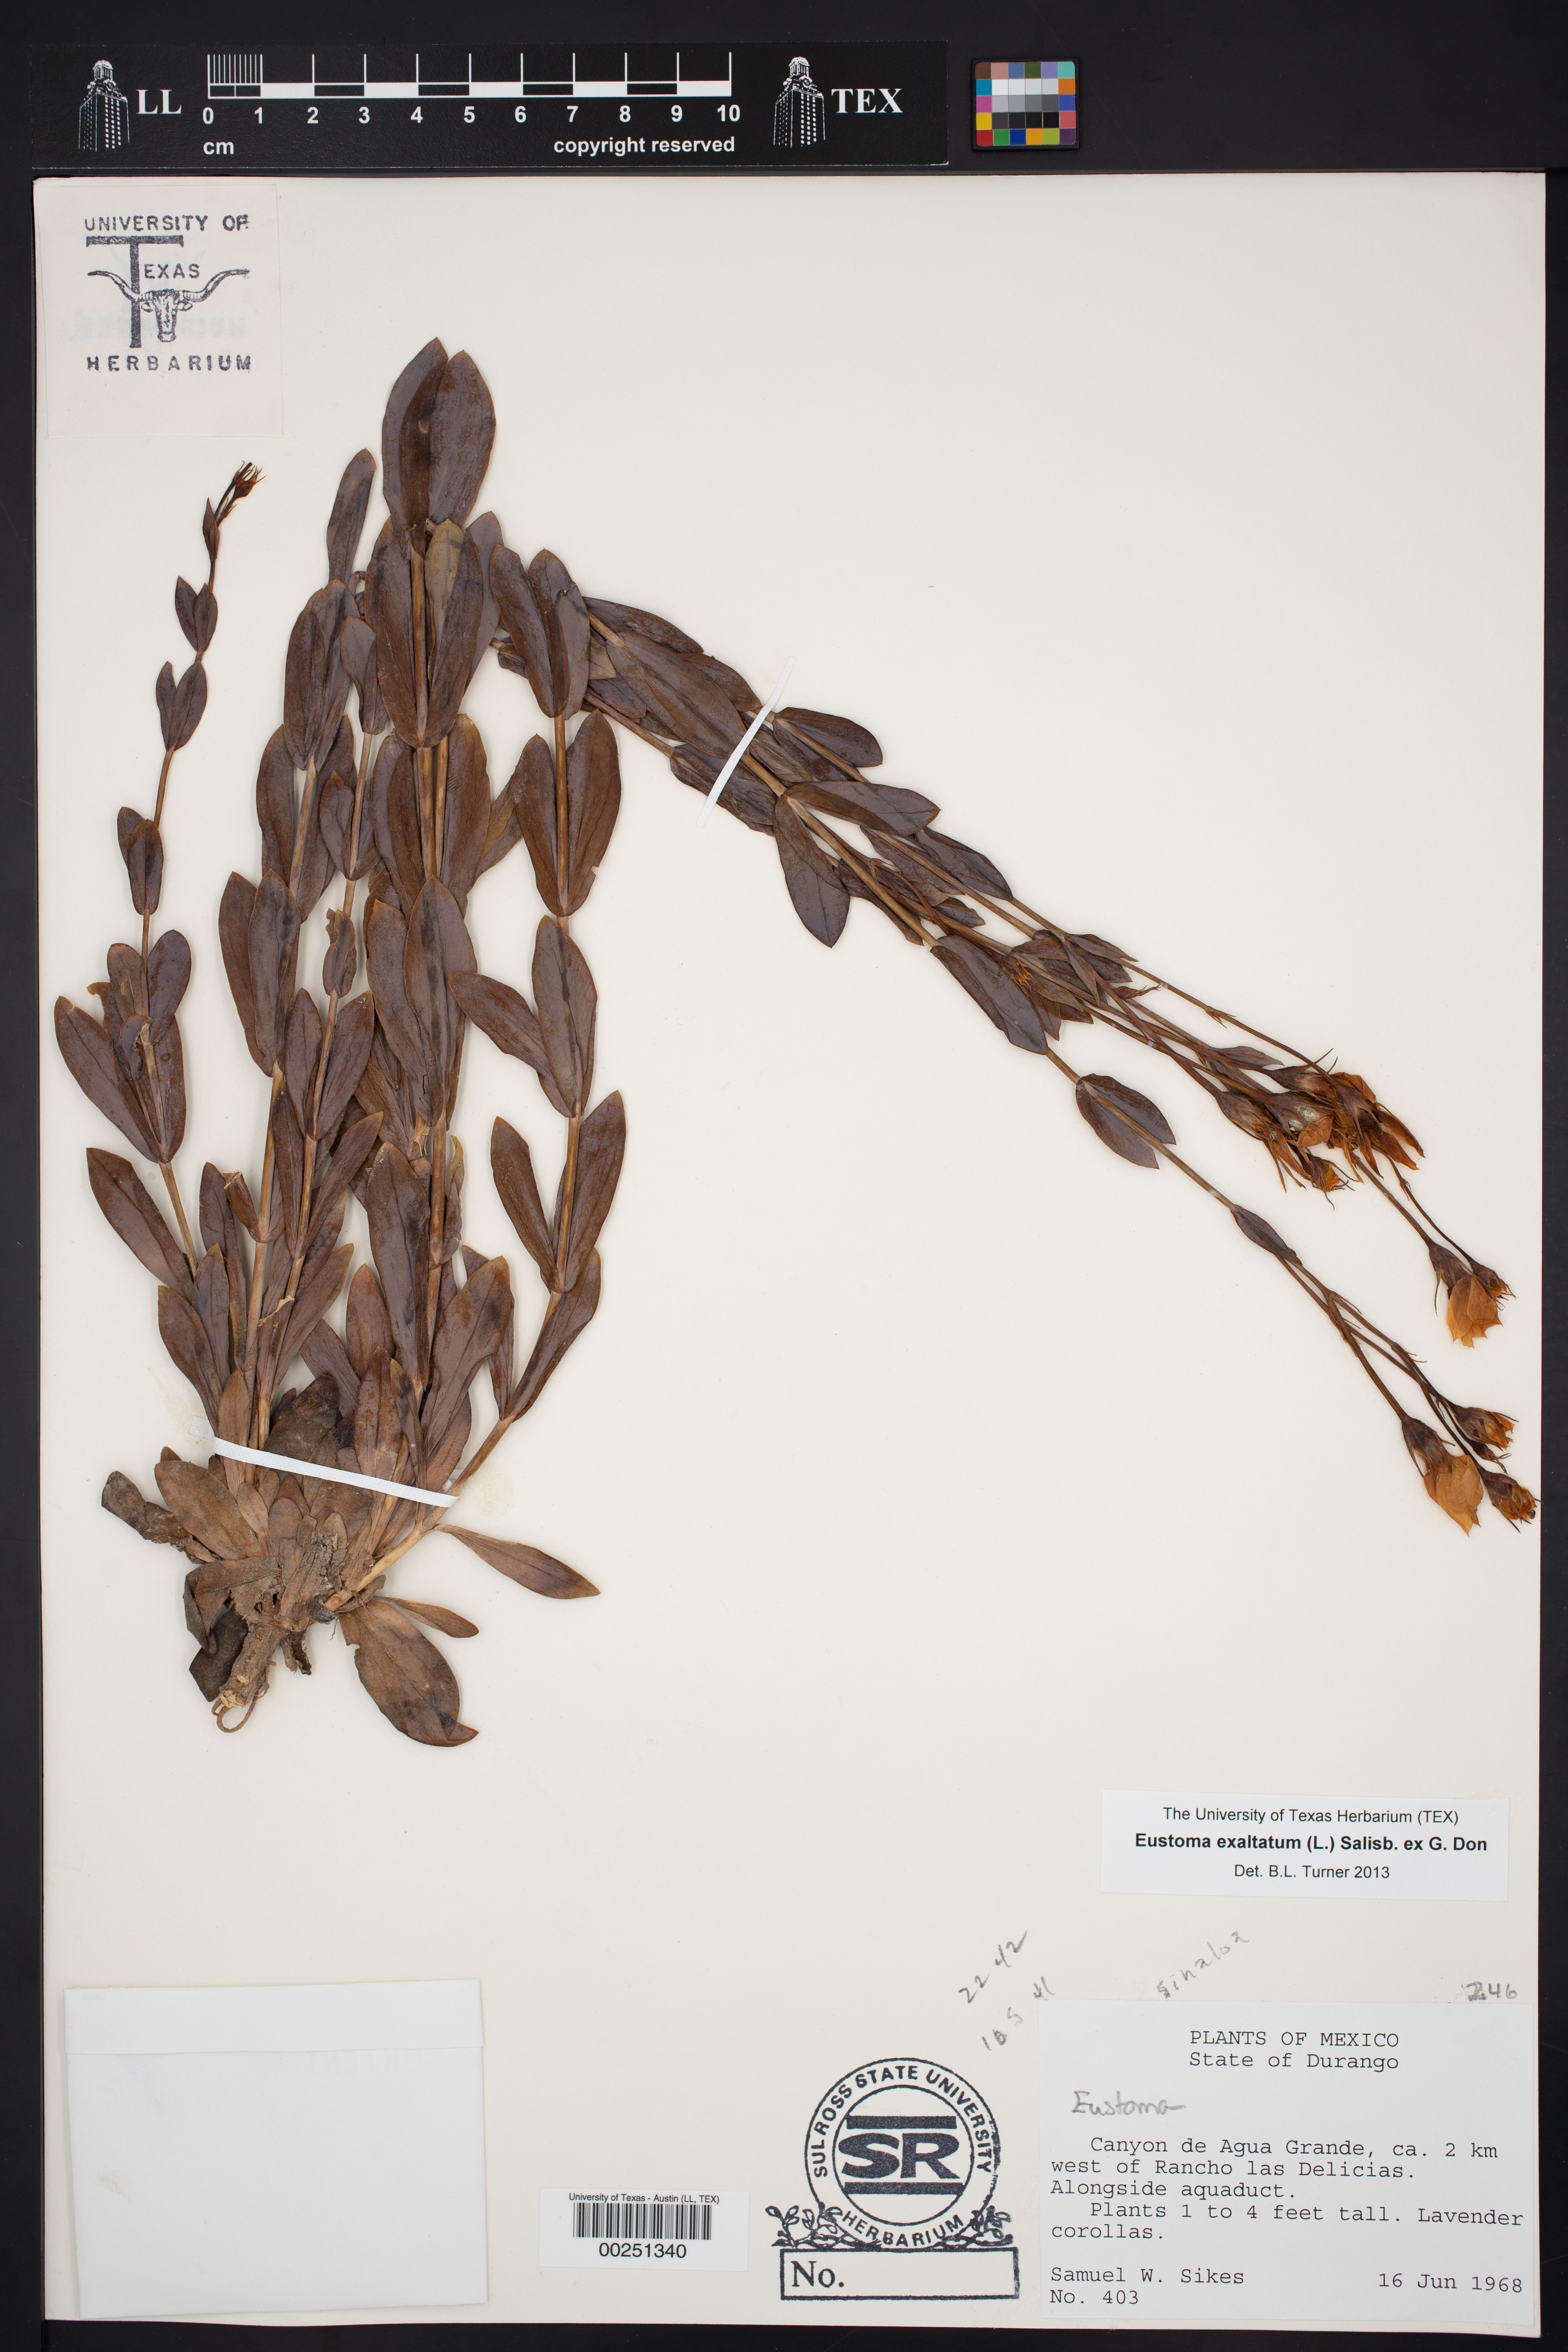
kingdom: Plantae
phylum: Tracheophyta
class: Magnoliopsida
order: Gentianales
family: Gentianaceae
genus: Eustoma
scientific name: Eustoma
